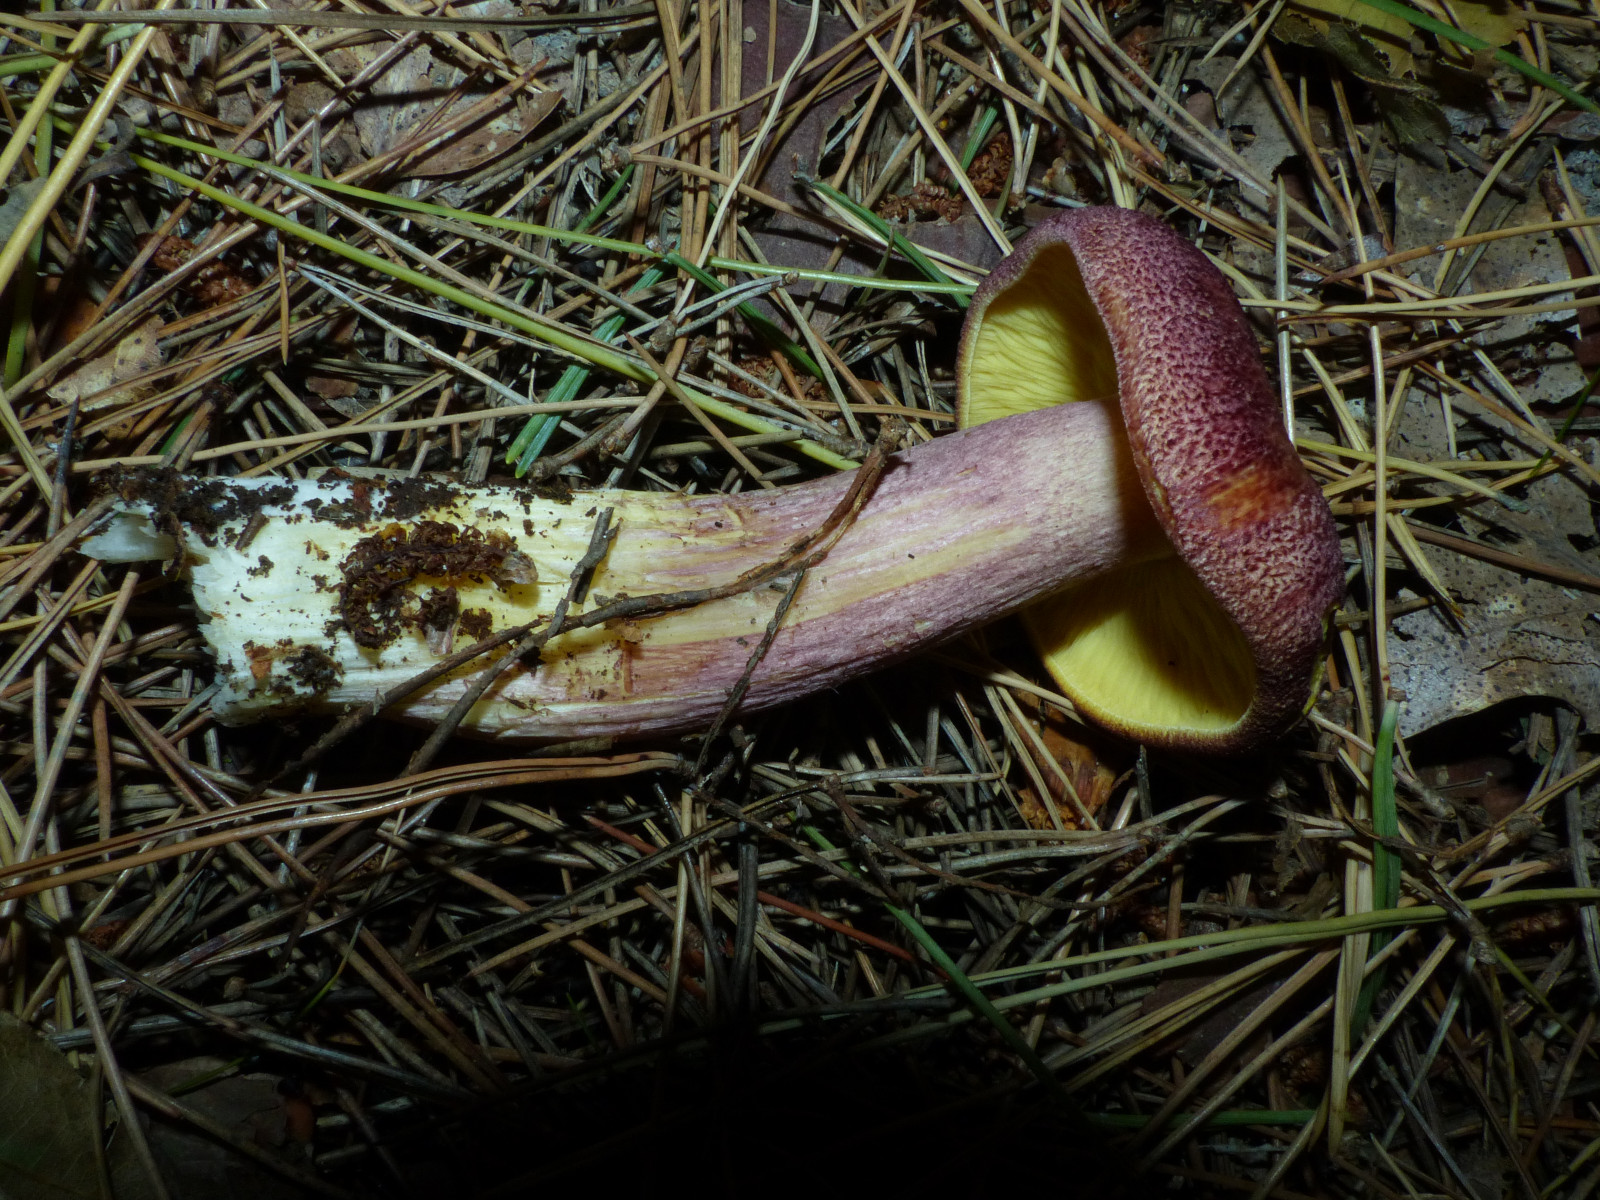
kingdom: Fungi
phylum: Basidiomycota
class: Agaricomycetes
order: Agaricales
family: Tricholomataceae
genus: Tricholomopsis
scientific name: Tricholomopsis rutilans
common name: purpur-væbnerhat
